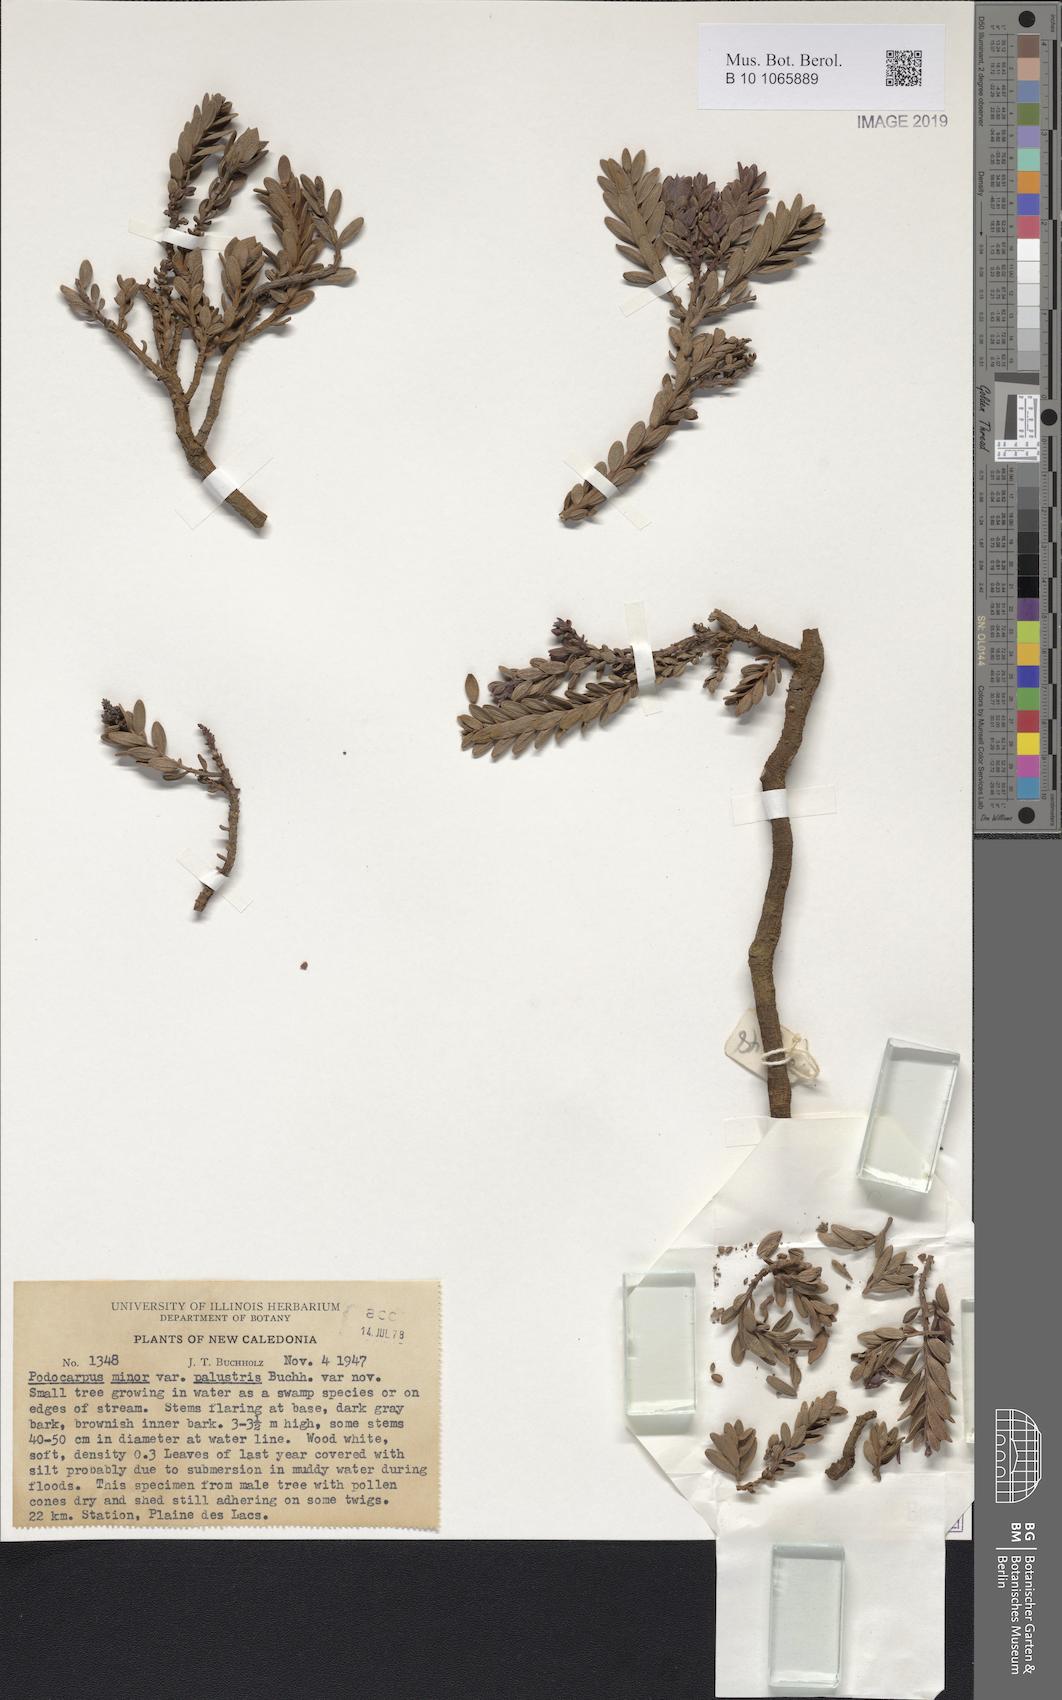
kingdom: Plantae
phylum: Tracheophyta
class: Pinopsida
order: Pinales
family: Podocarpaceae
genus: Retrophyllum
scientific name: Retrophyllum minus
